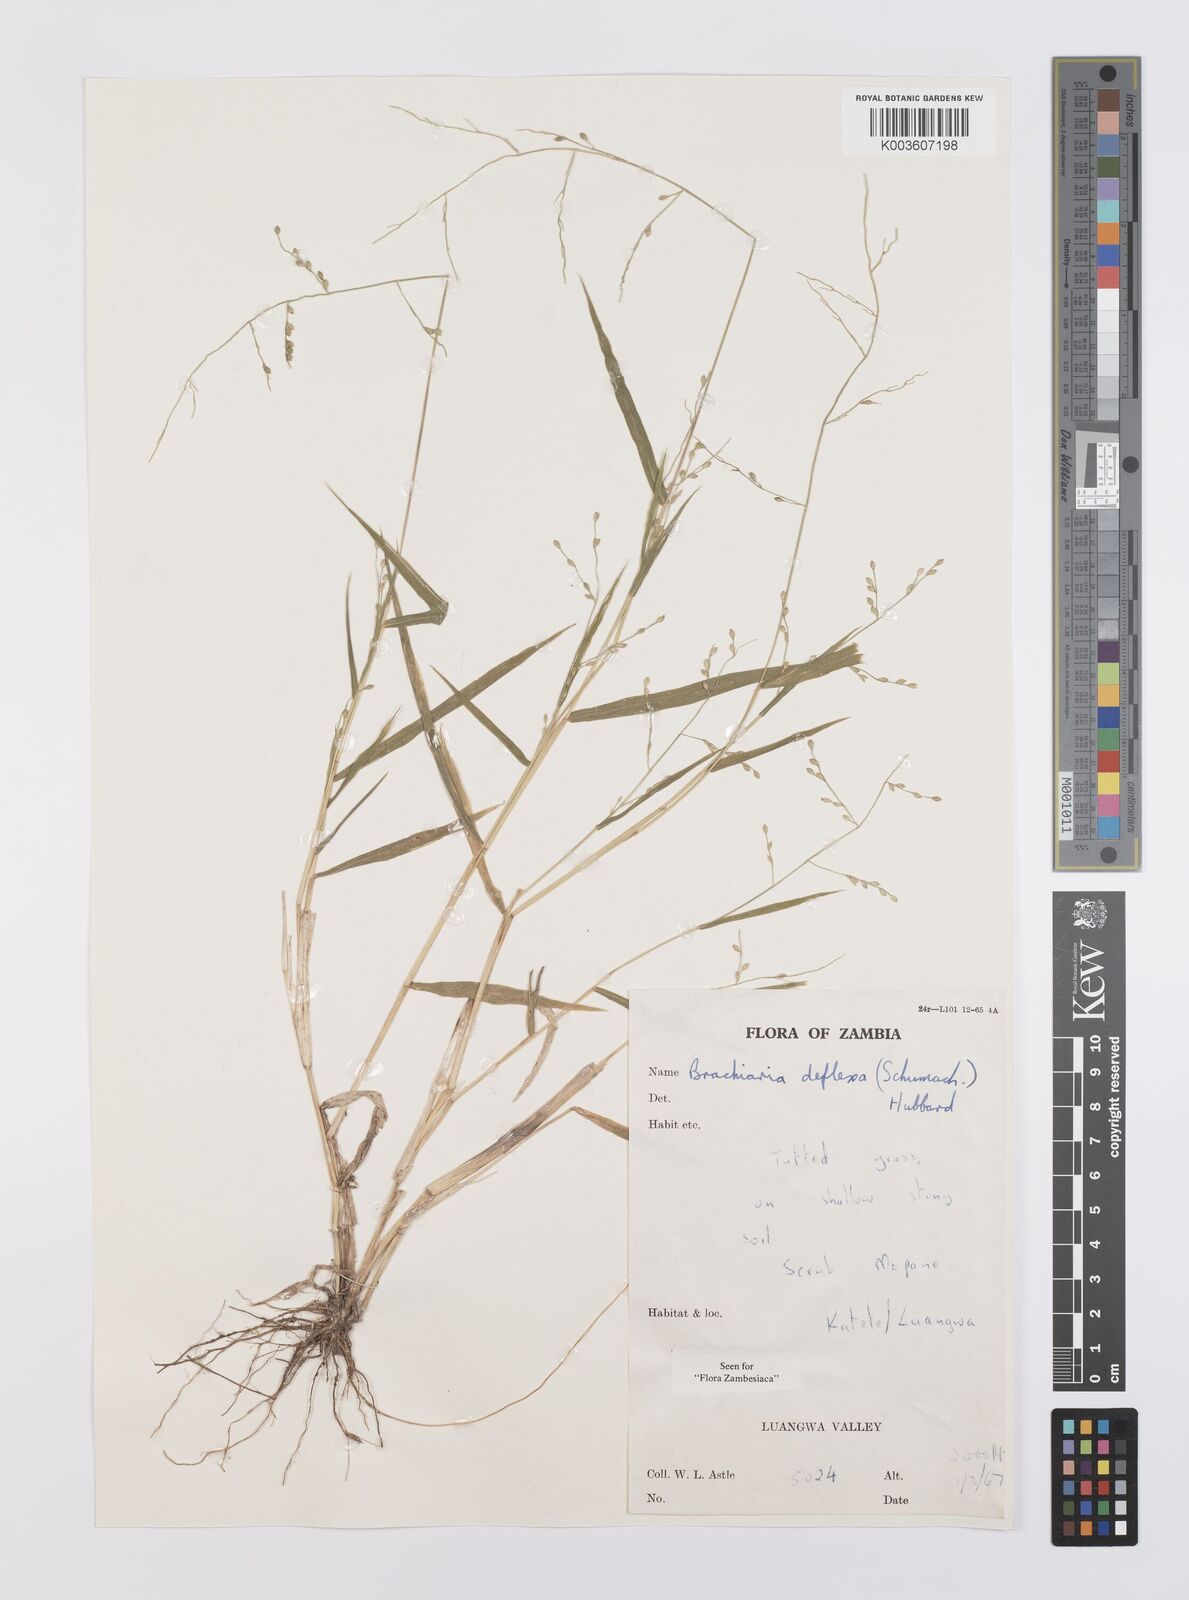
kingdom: Plantae
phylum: Tracheophyta
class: Liliopsida
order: Poales
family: Poaceae
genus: Urochloa
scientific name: Urochloa deflexa
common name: Guinea millet
